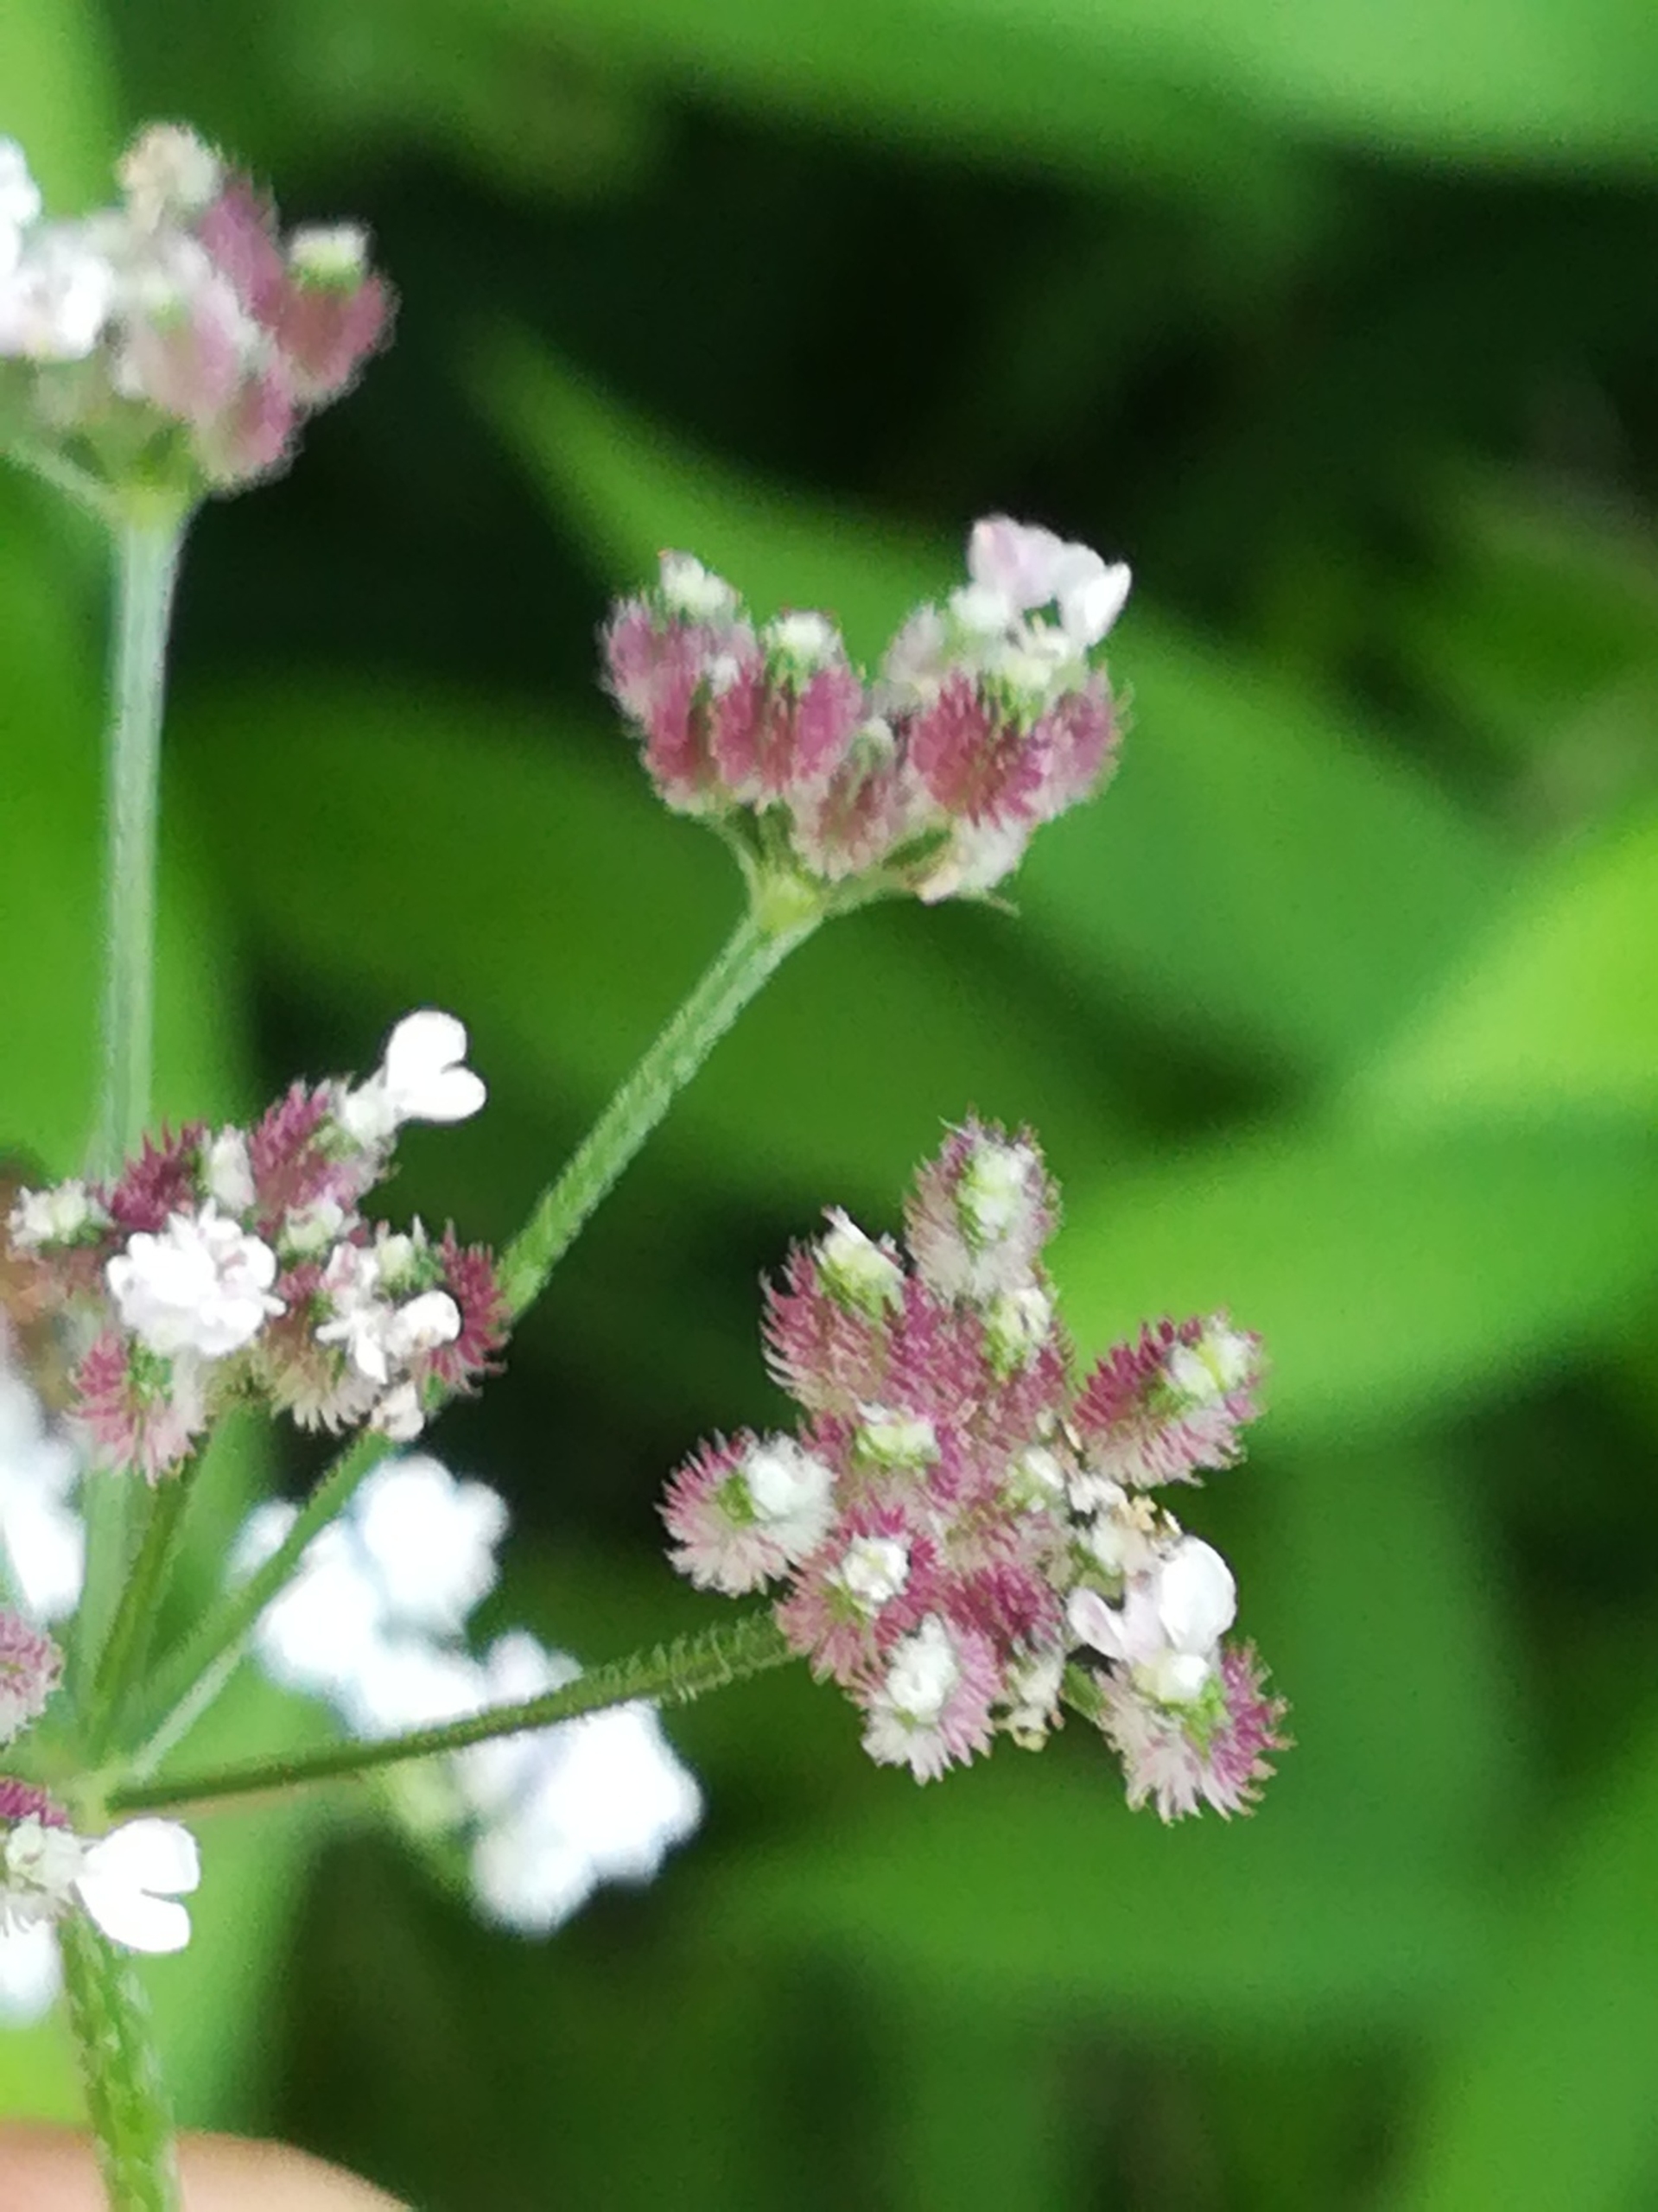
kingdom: Plantae
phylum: Tracheophyta
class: Magnoliopsida
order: Apiales
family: Apiaceae
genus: Torilis
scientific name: Torilis japonica
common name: Hvas randfrø
